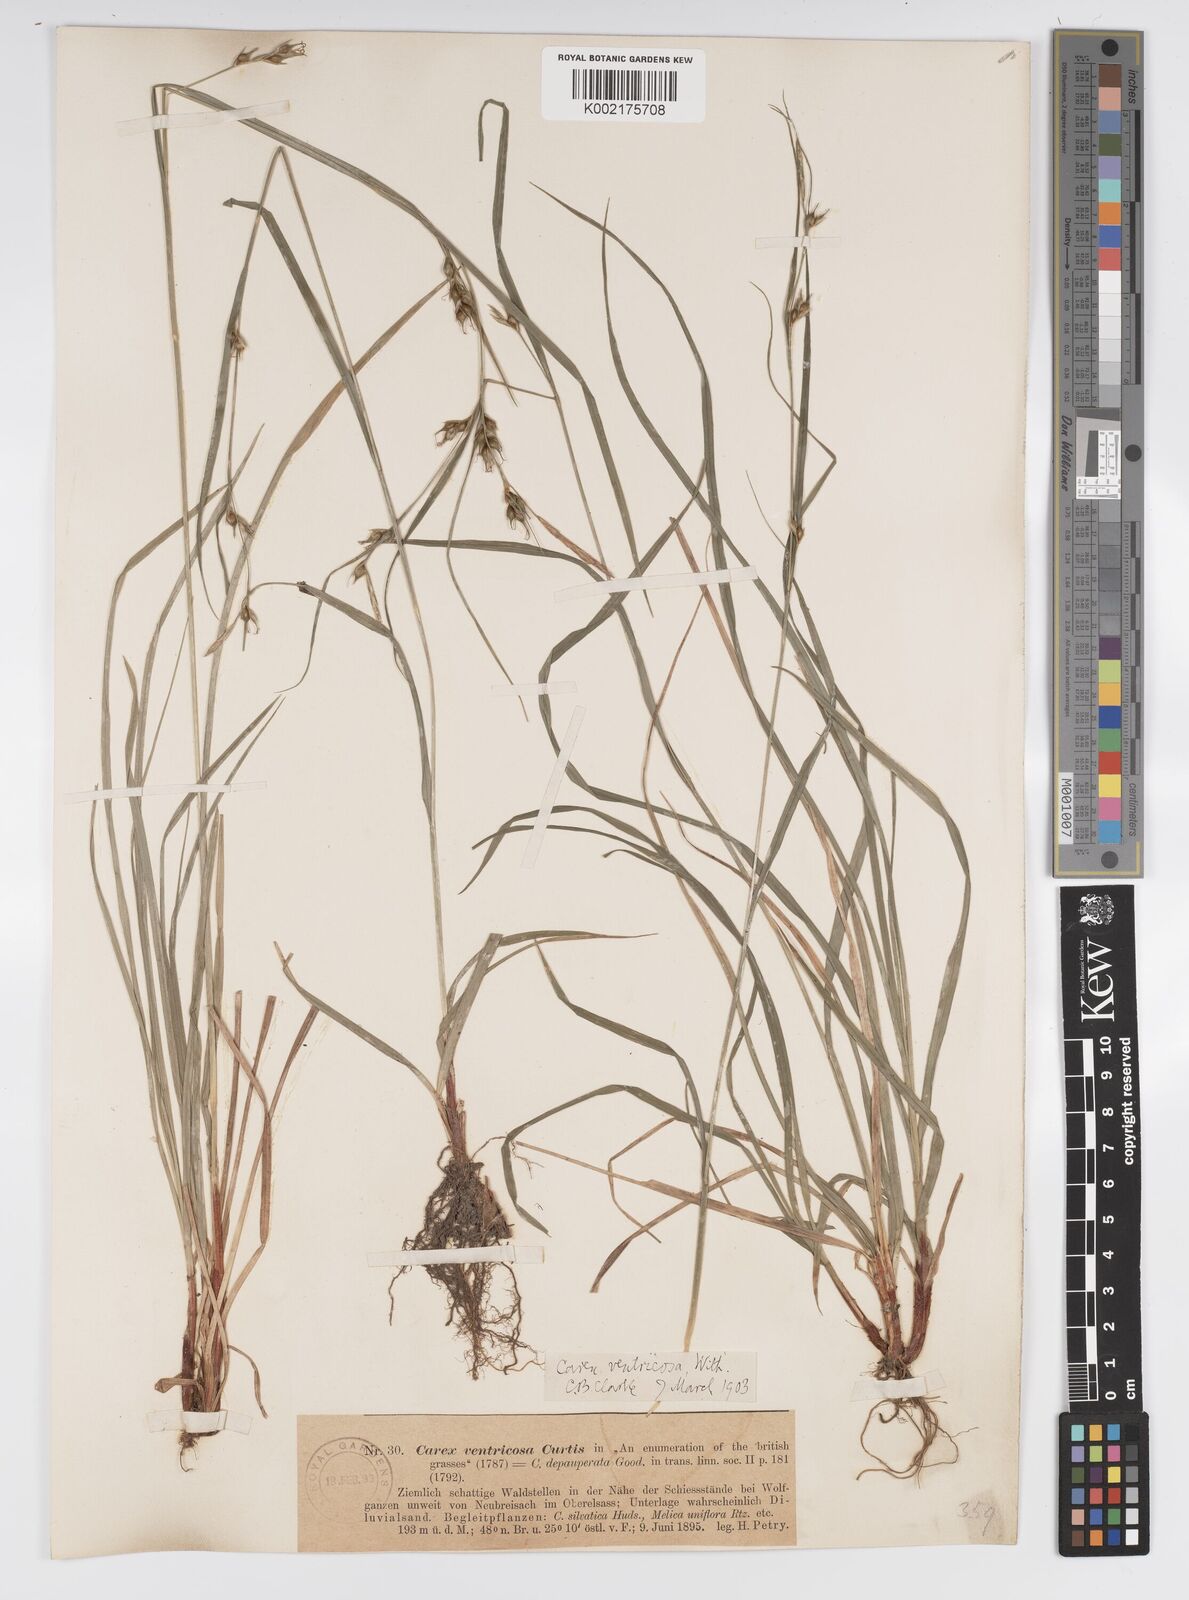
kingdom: Plantae
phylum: Tracheophyta
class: Liliopsida
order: Poales
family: Cyperaceae
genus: Carex
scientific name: Carex
